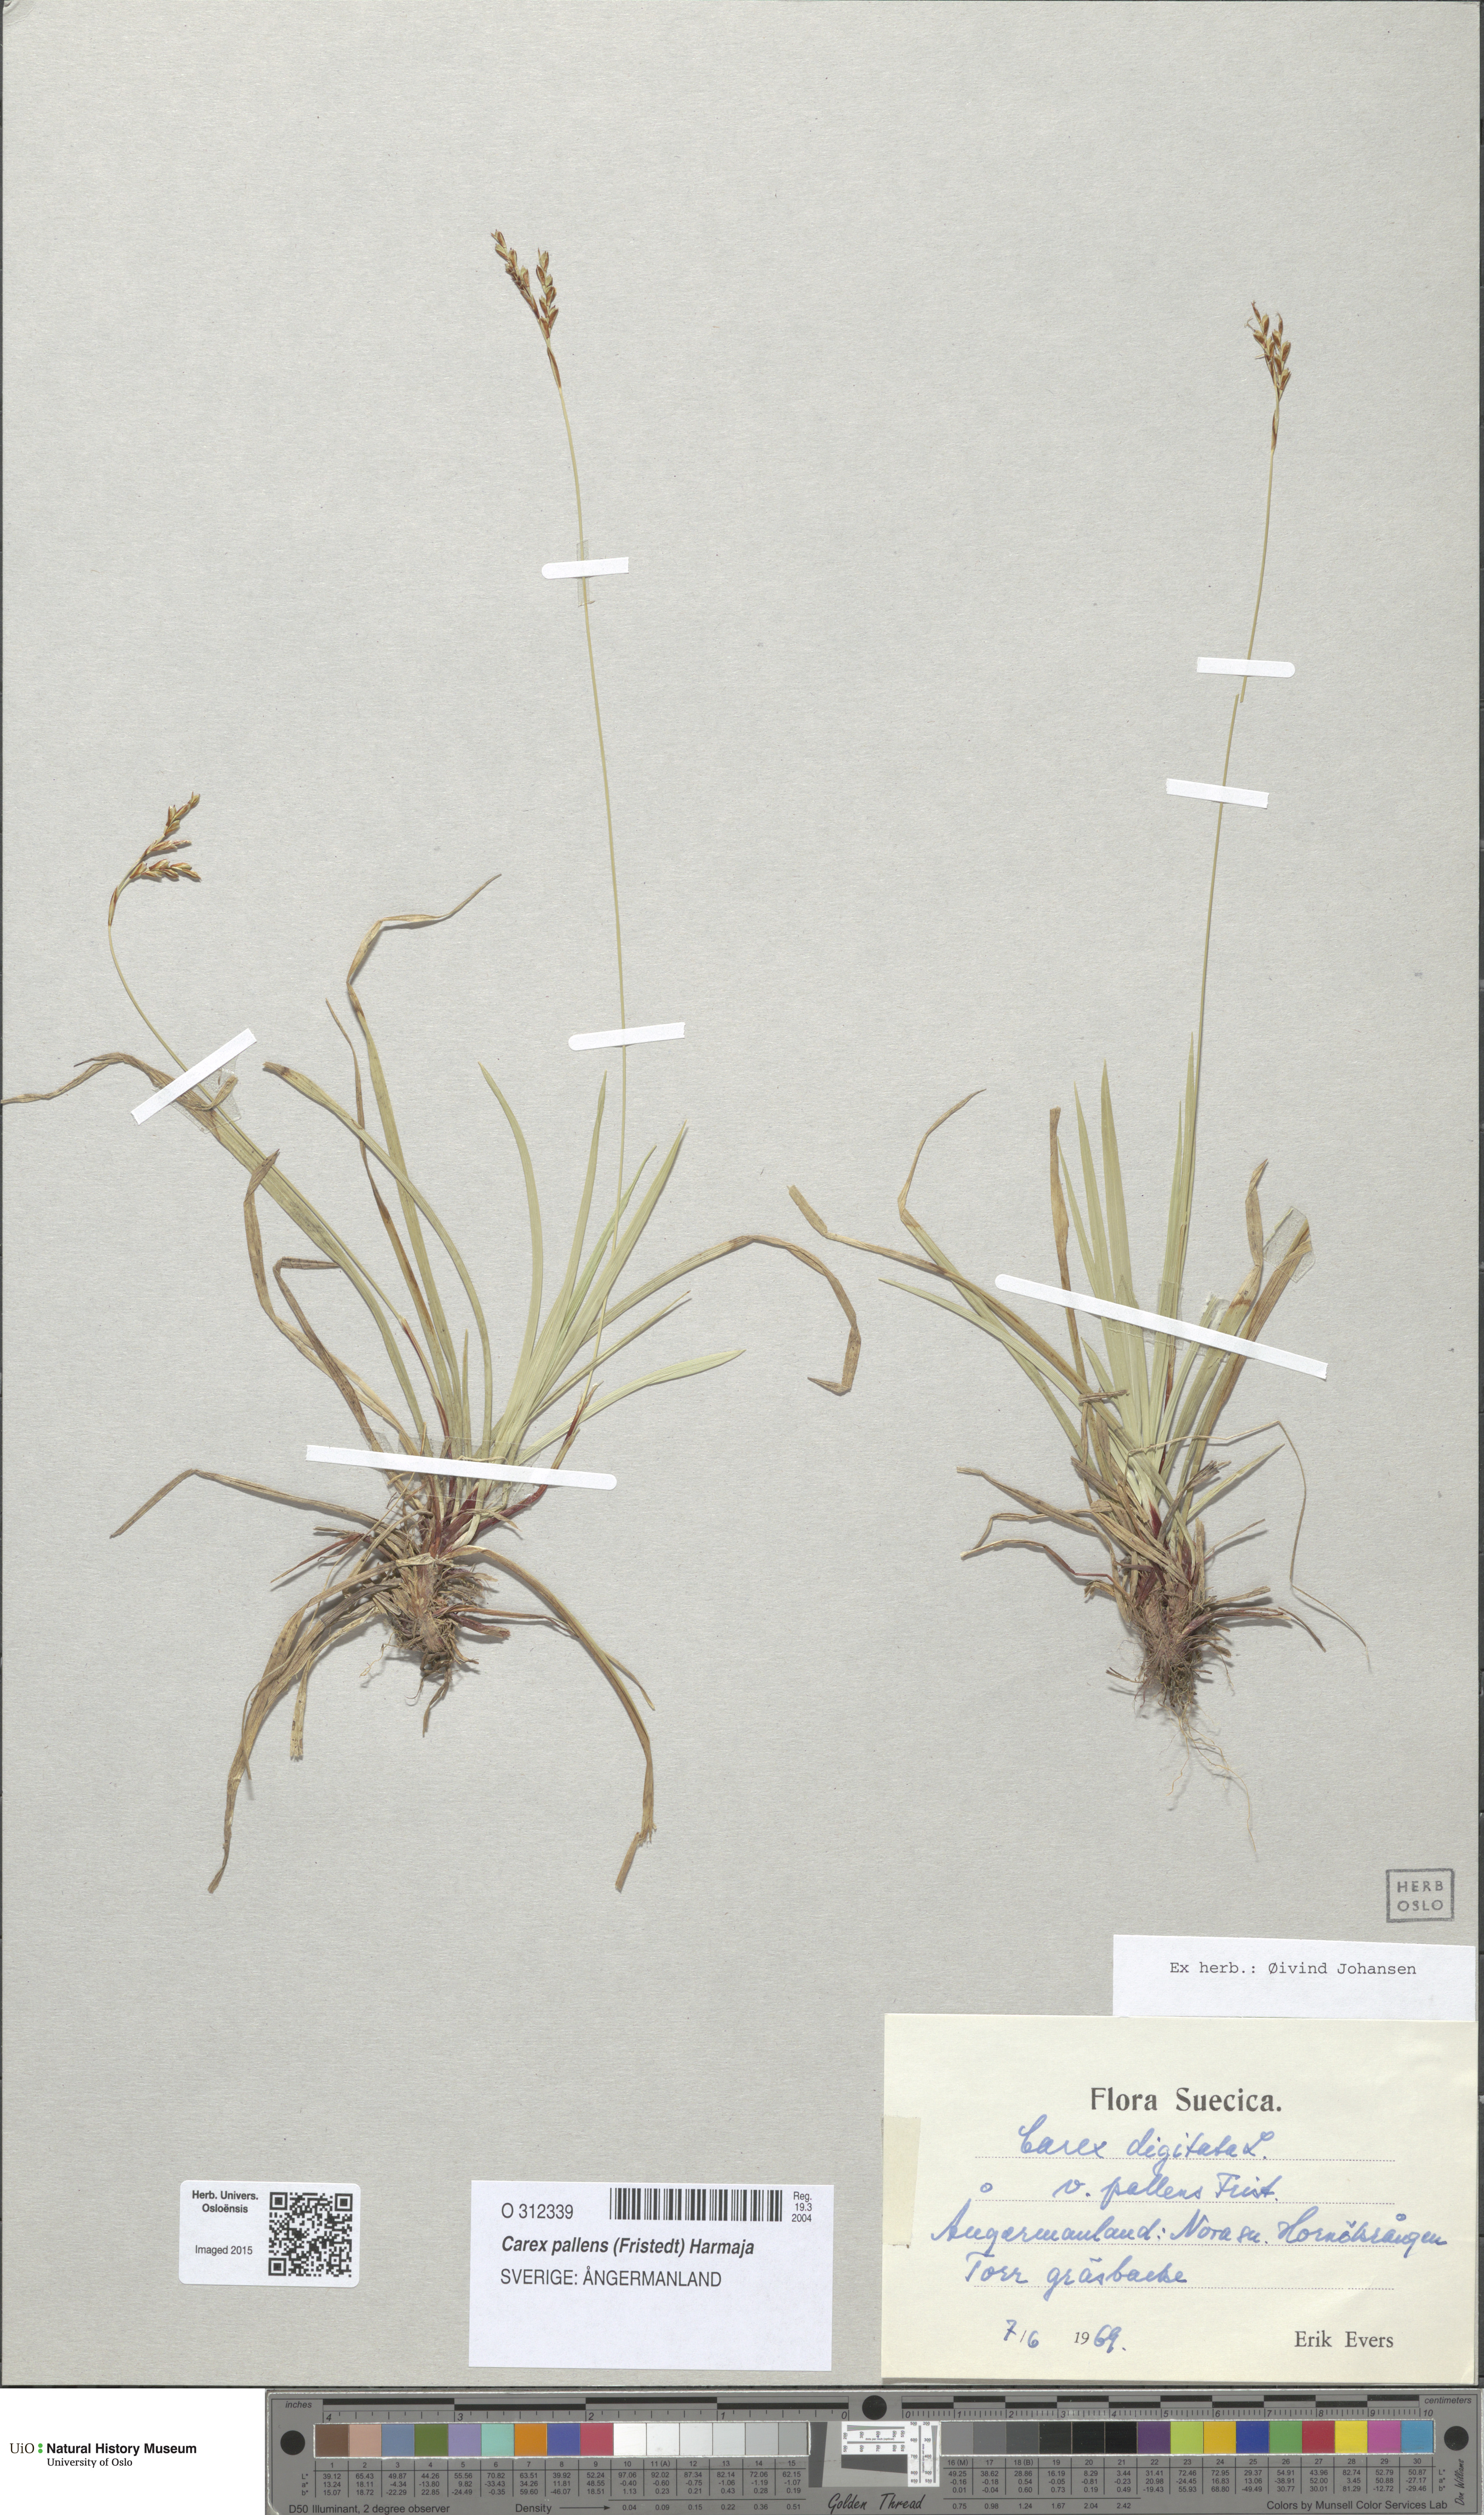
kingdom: Plantae
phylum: Tracheophyta
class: Liliopsida
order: Poales
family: Cyperaceae
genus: Carex
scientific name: Carex pallidula
